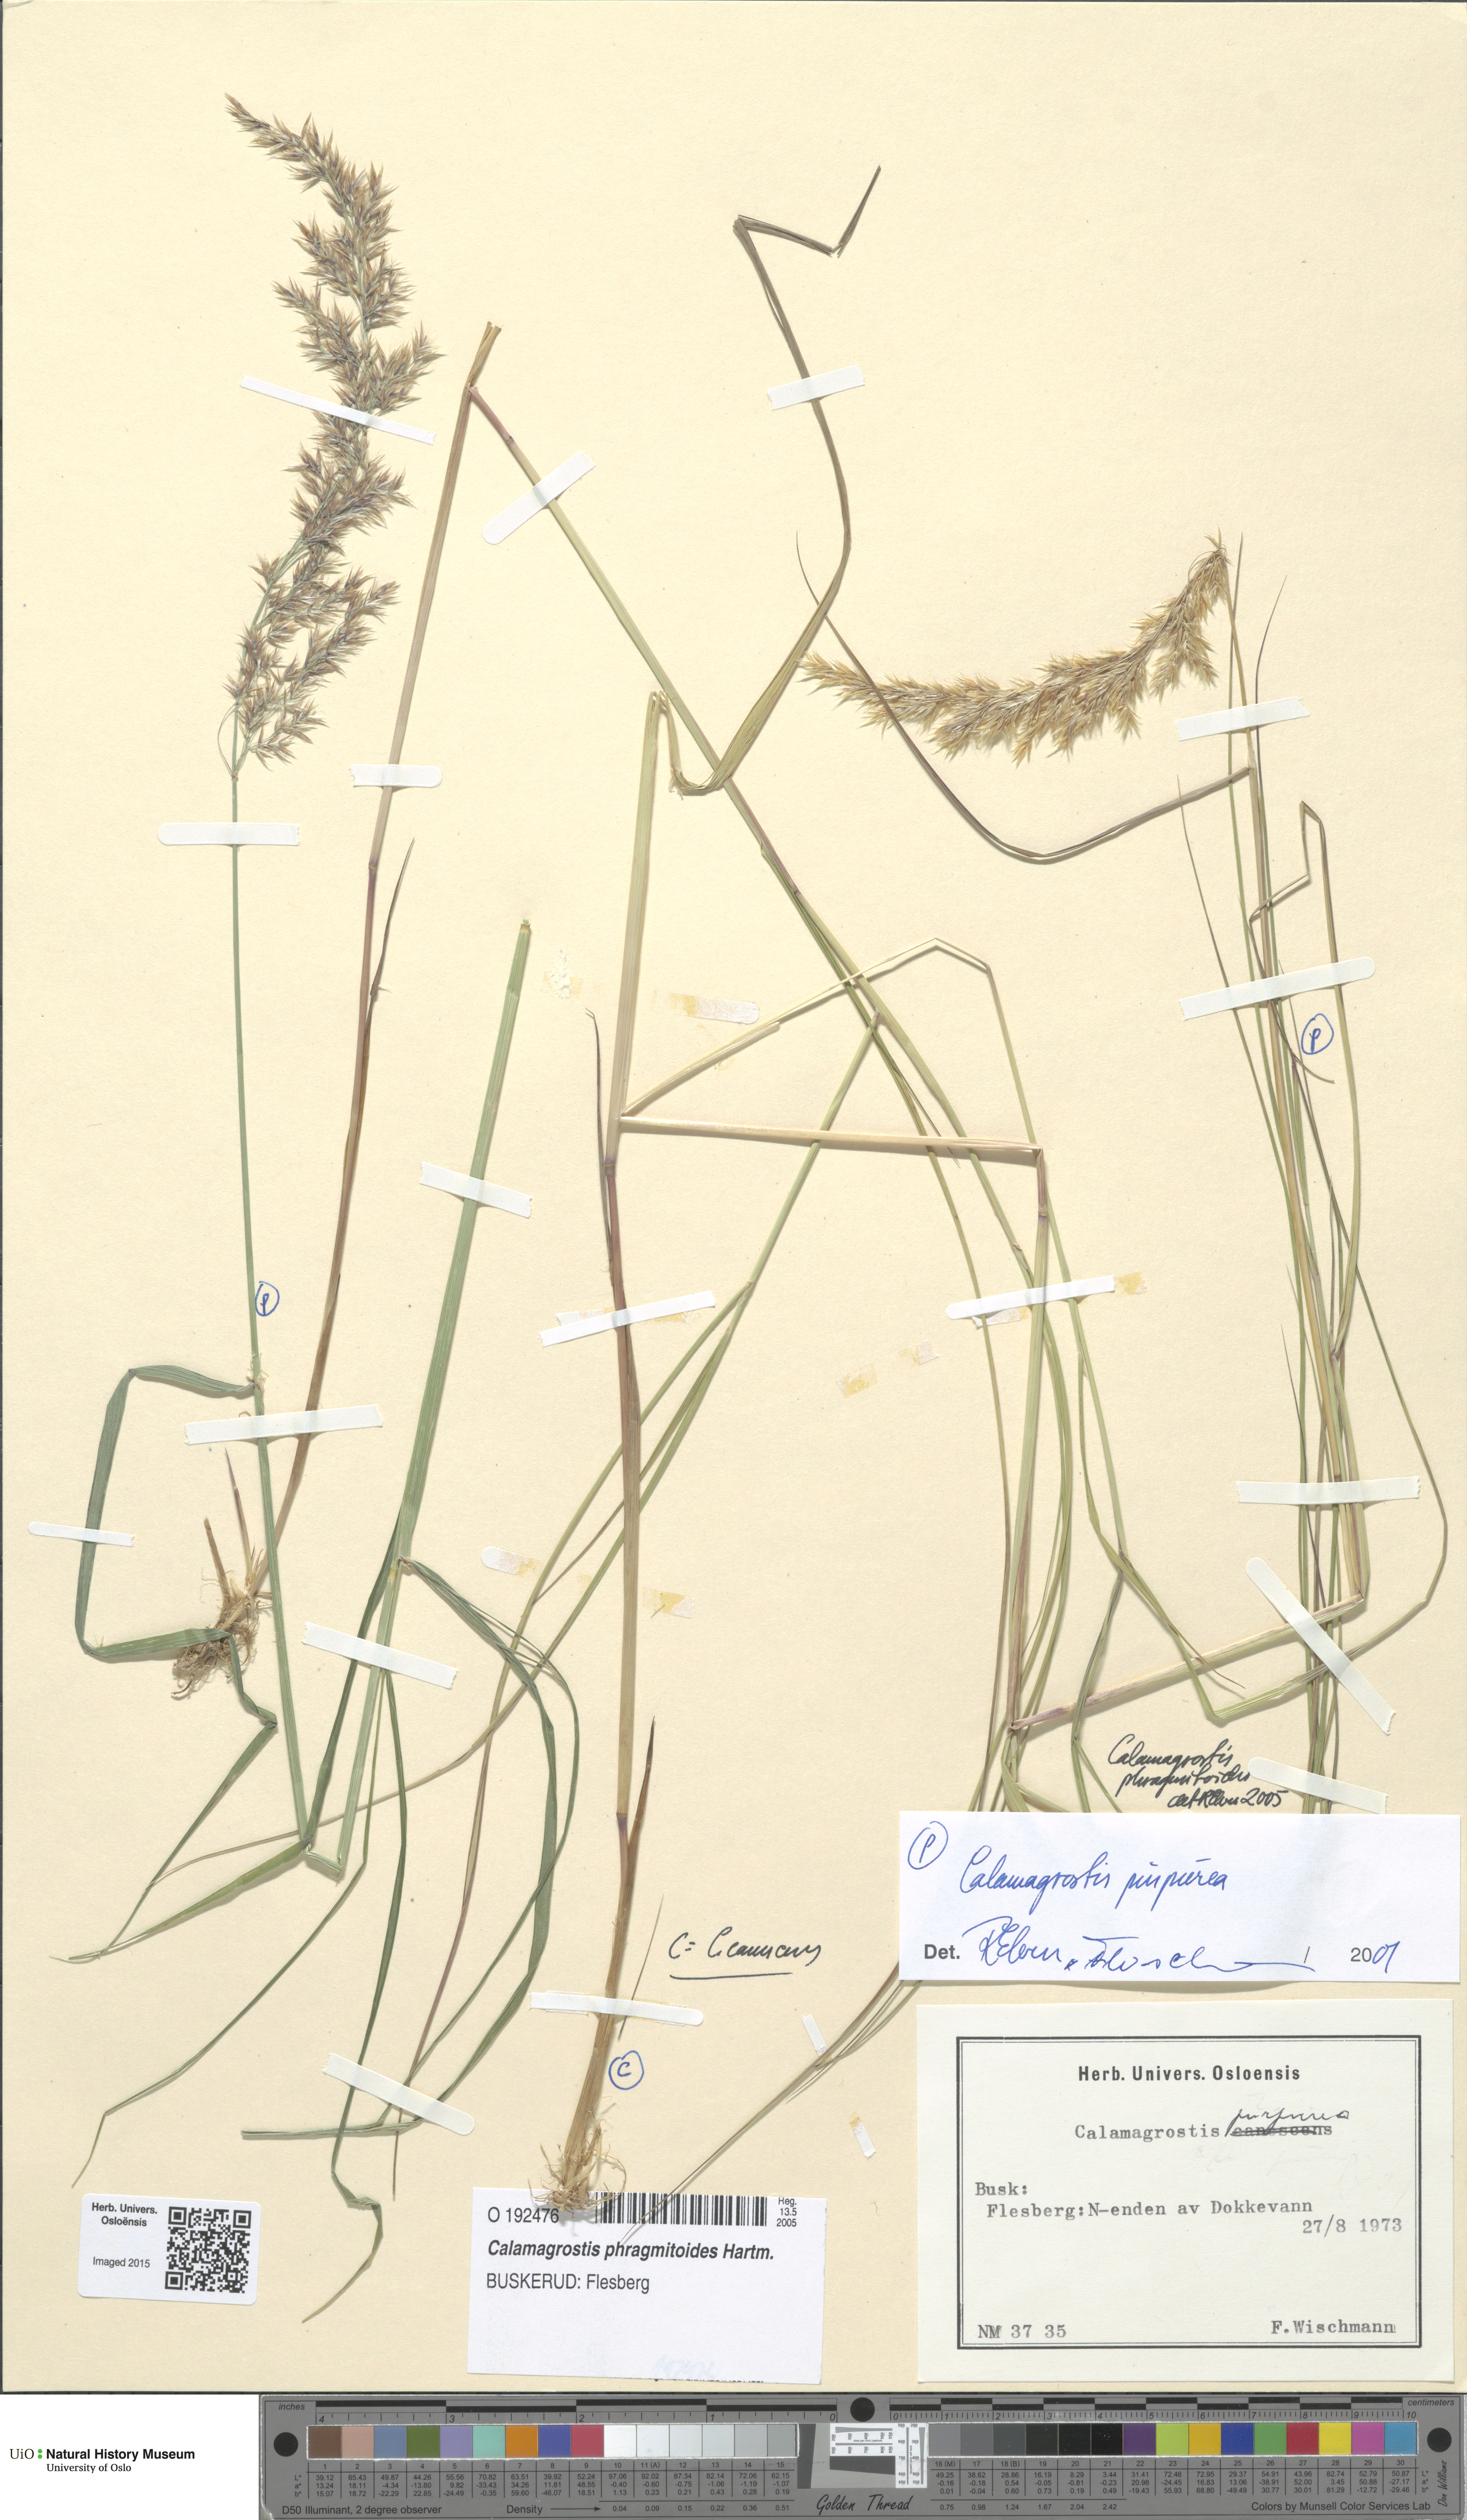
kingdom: Plantae
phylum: Tracheophyta
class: Liliopsida
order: Poales
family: Poaceae
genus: Calamagrostis
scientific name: Calamagrostis purpurea
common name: Scandinavian small-reed
